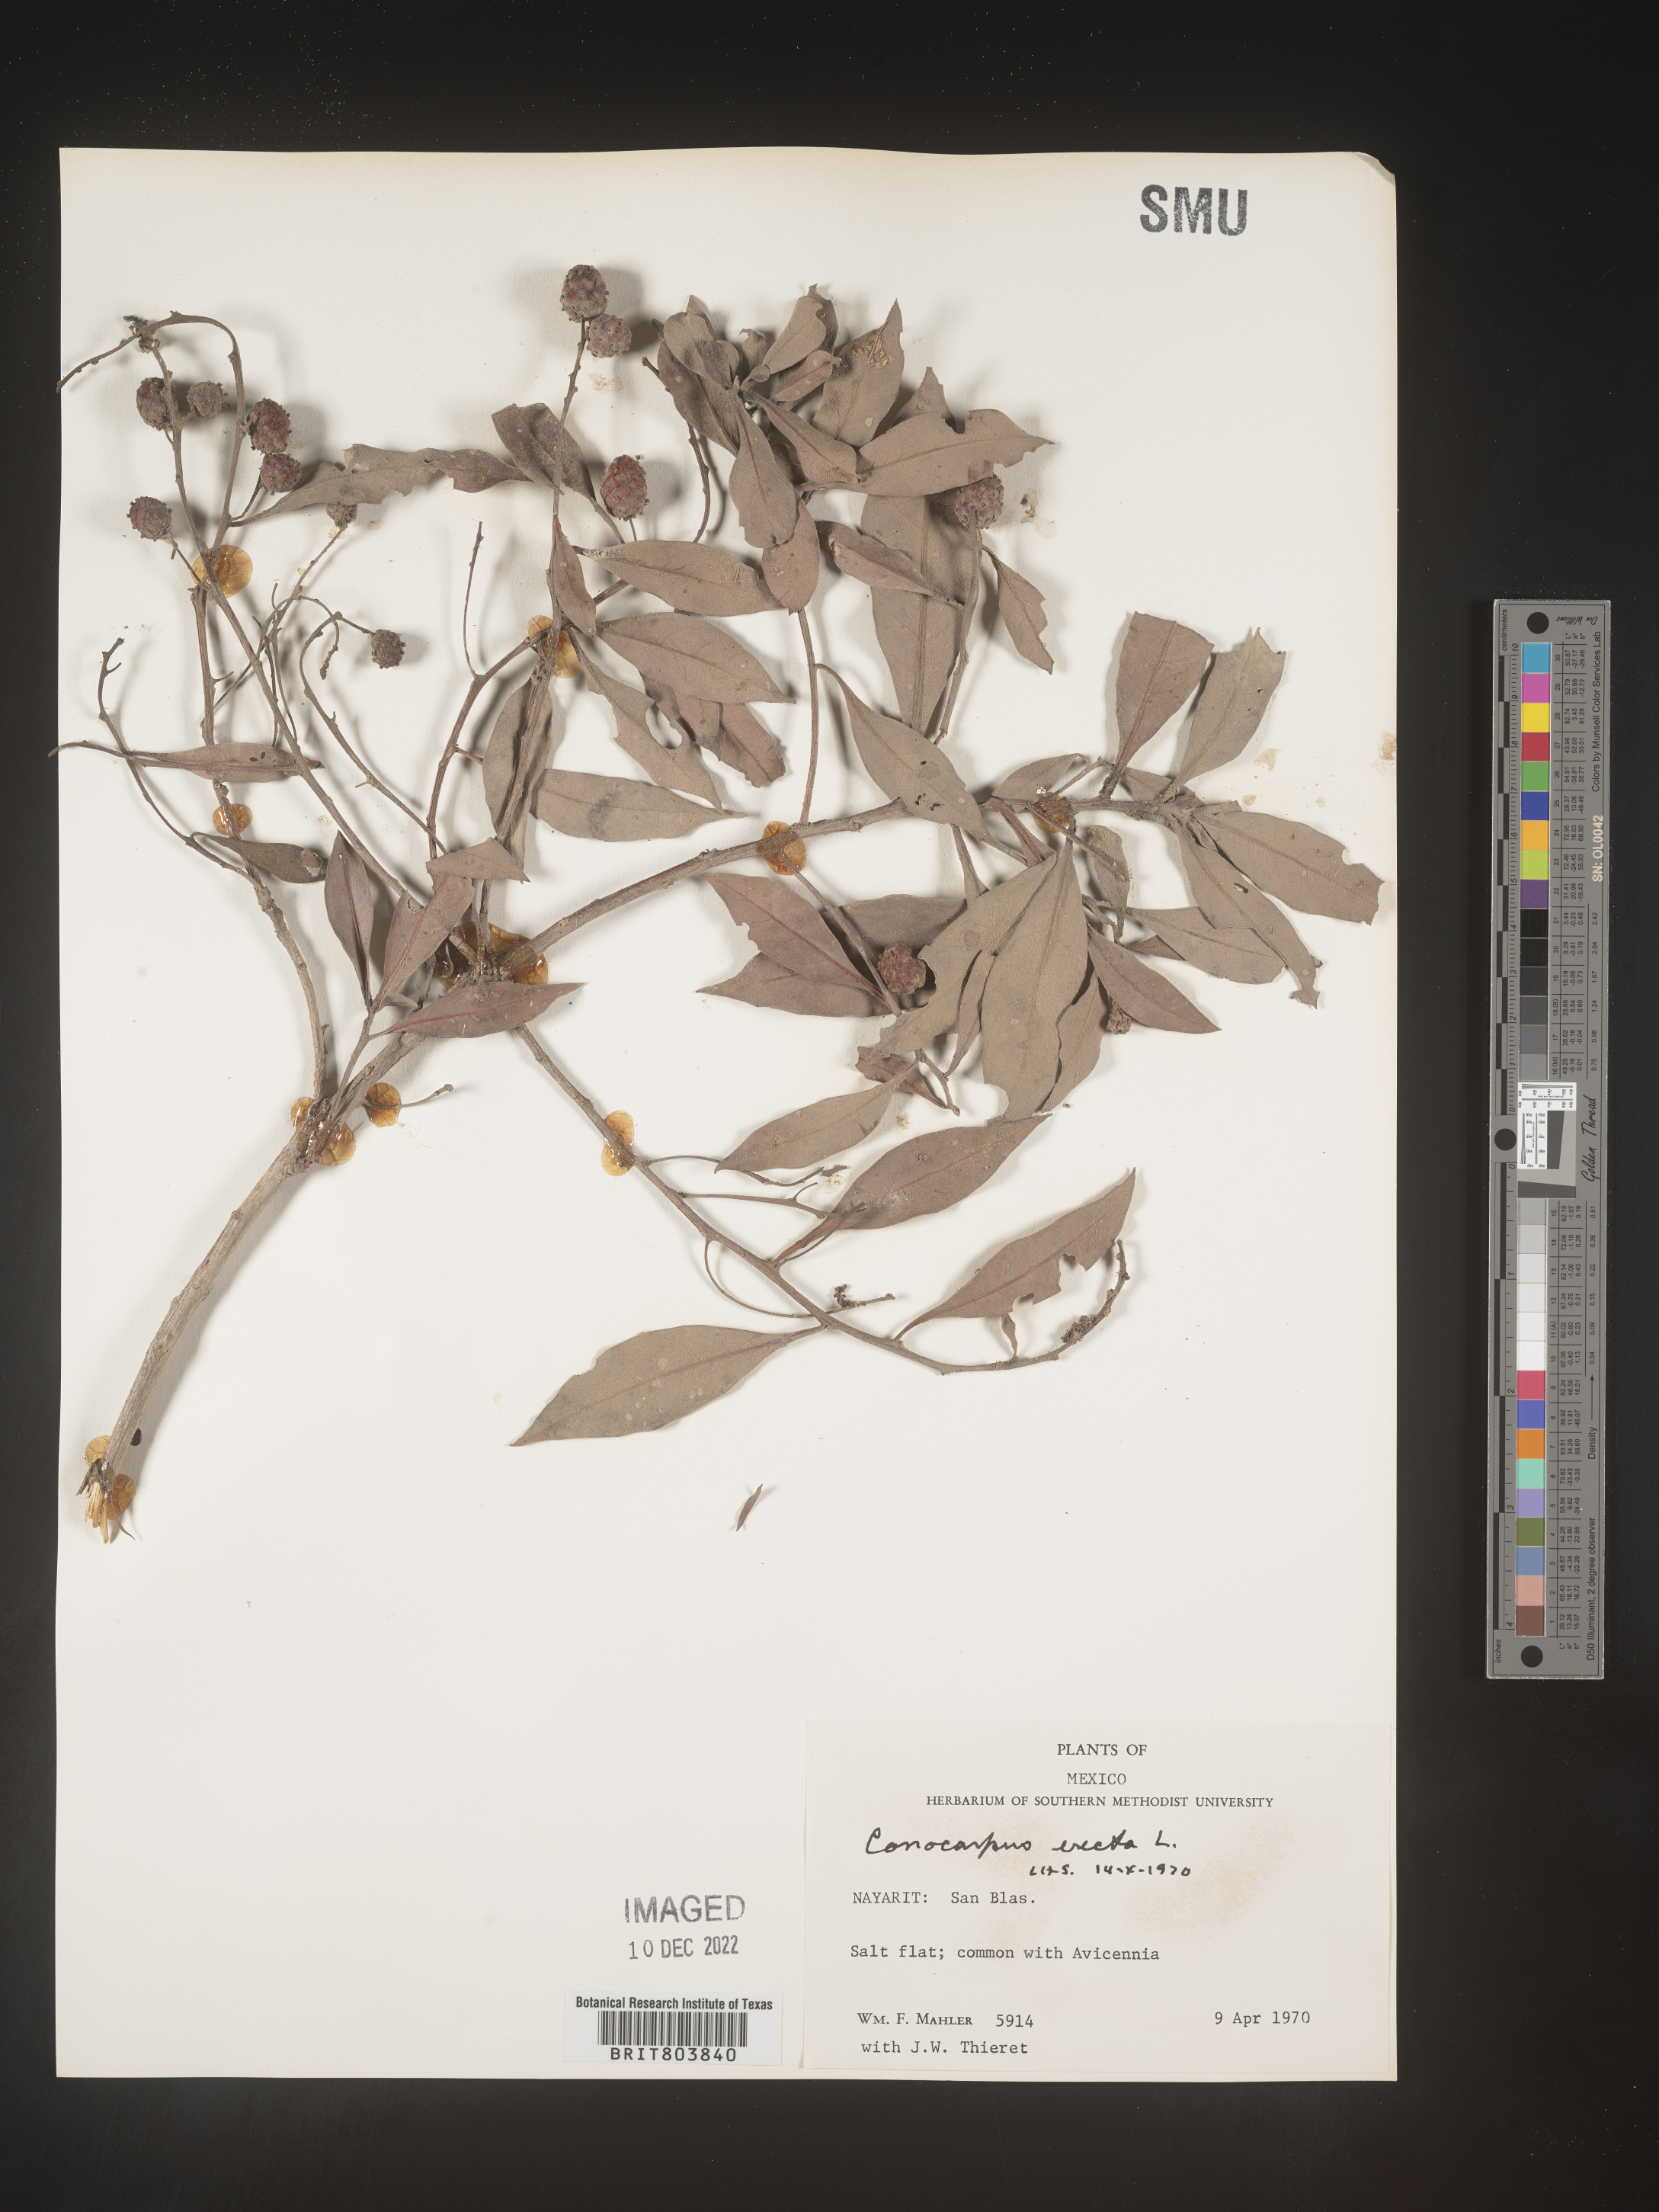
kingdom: Plantae
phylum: Tracheophyta
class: Magnoliopsida
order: Myrtales
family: Combretaceae
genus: Conocarpus
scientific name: Conocarpus
